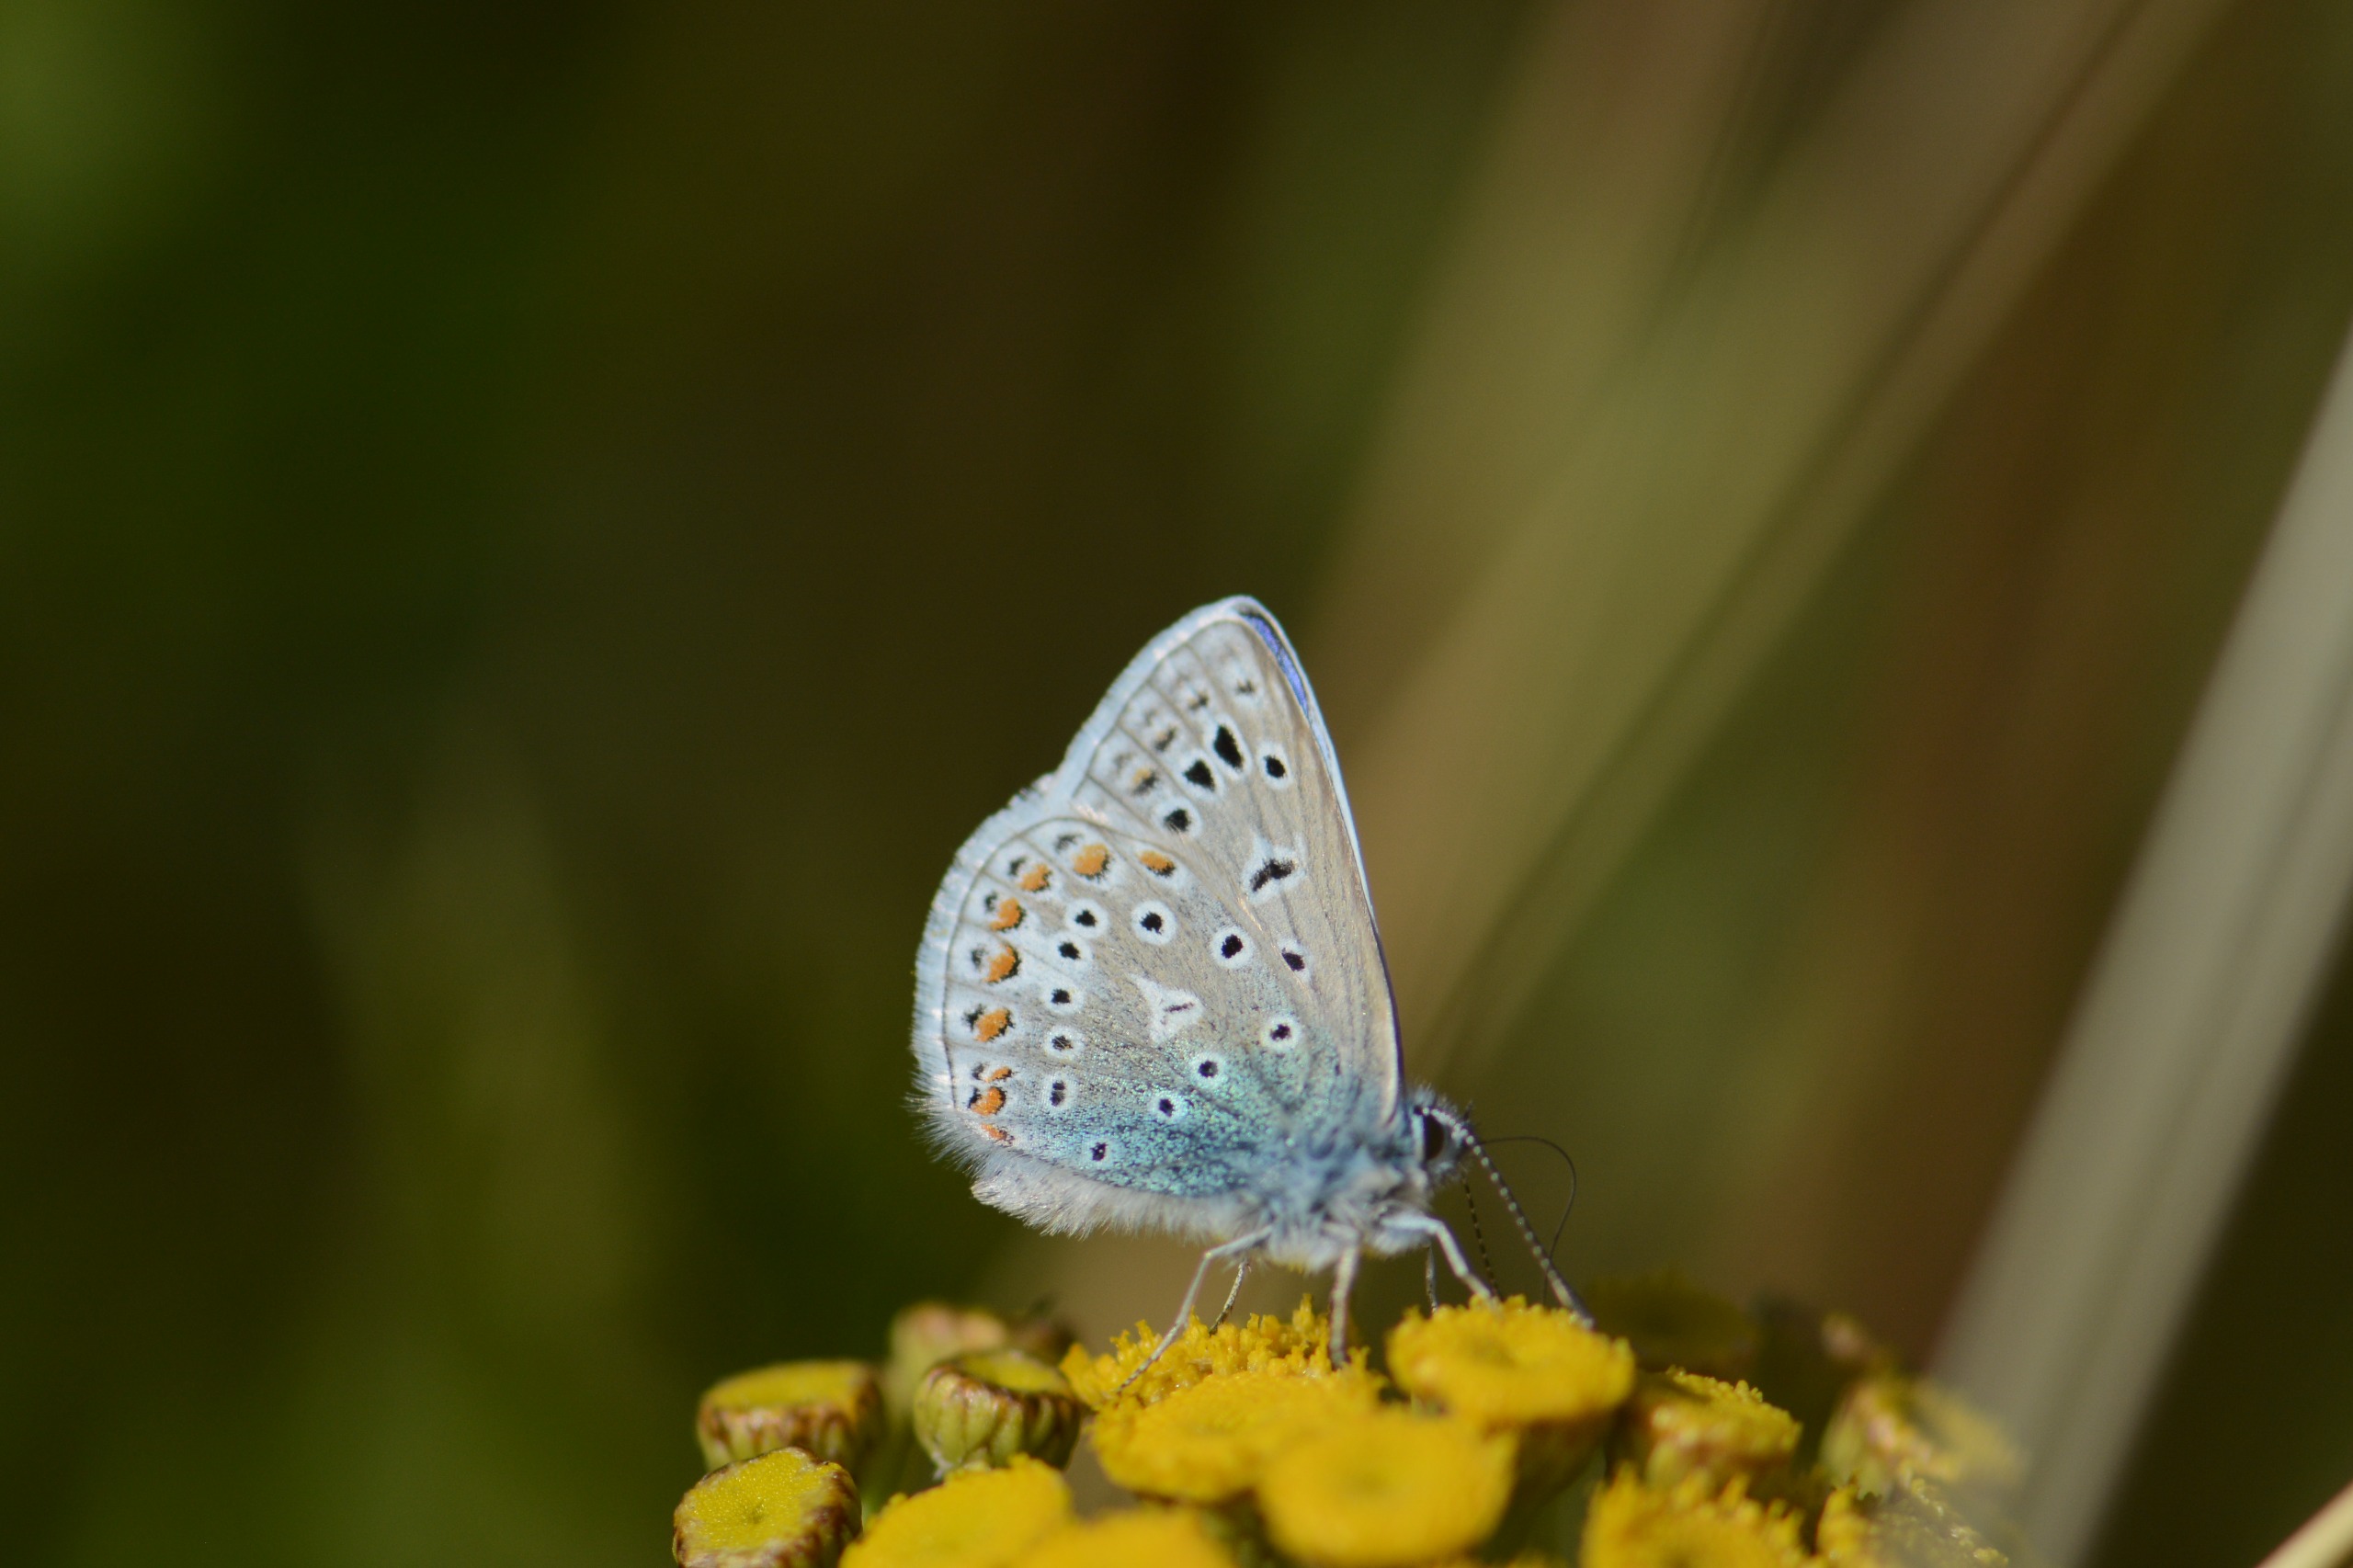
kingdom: Animalia
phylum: Arthropoda
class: Insecta
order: Lepidoptera
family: Lycaenidae
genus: Polyommatus
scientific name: Polyommatus icarus
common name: Almindelig blåfugl
